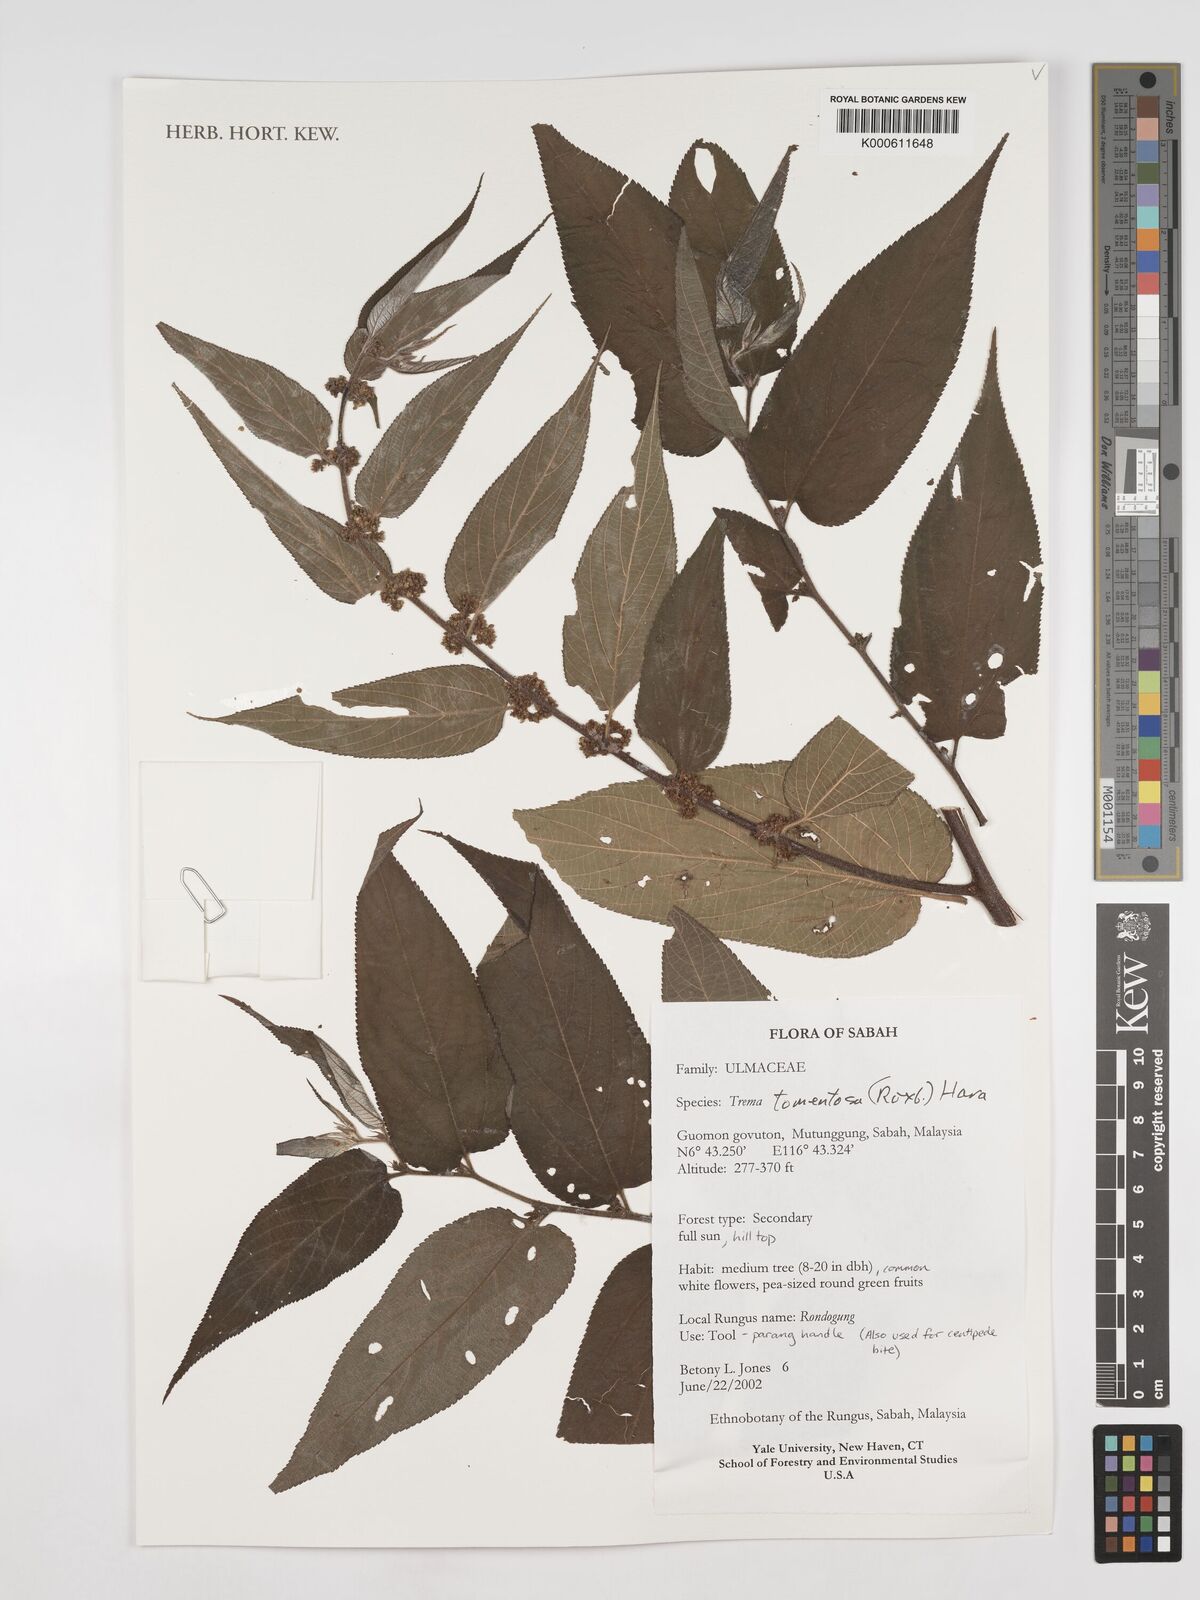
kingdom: Plantae
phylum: Tracheophyta
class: Magnoliopsida
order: Rosales
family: Cannabaceae
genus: Trema
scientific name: Trema tomentosum
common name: Peach-leaf-poisonbush
